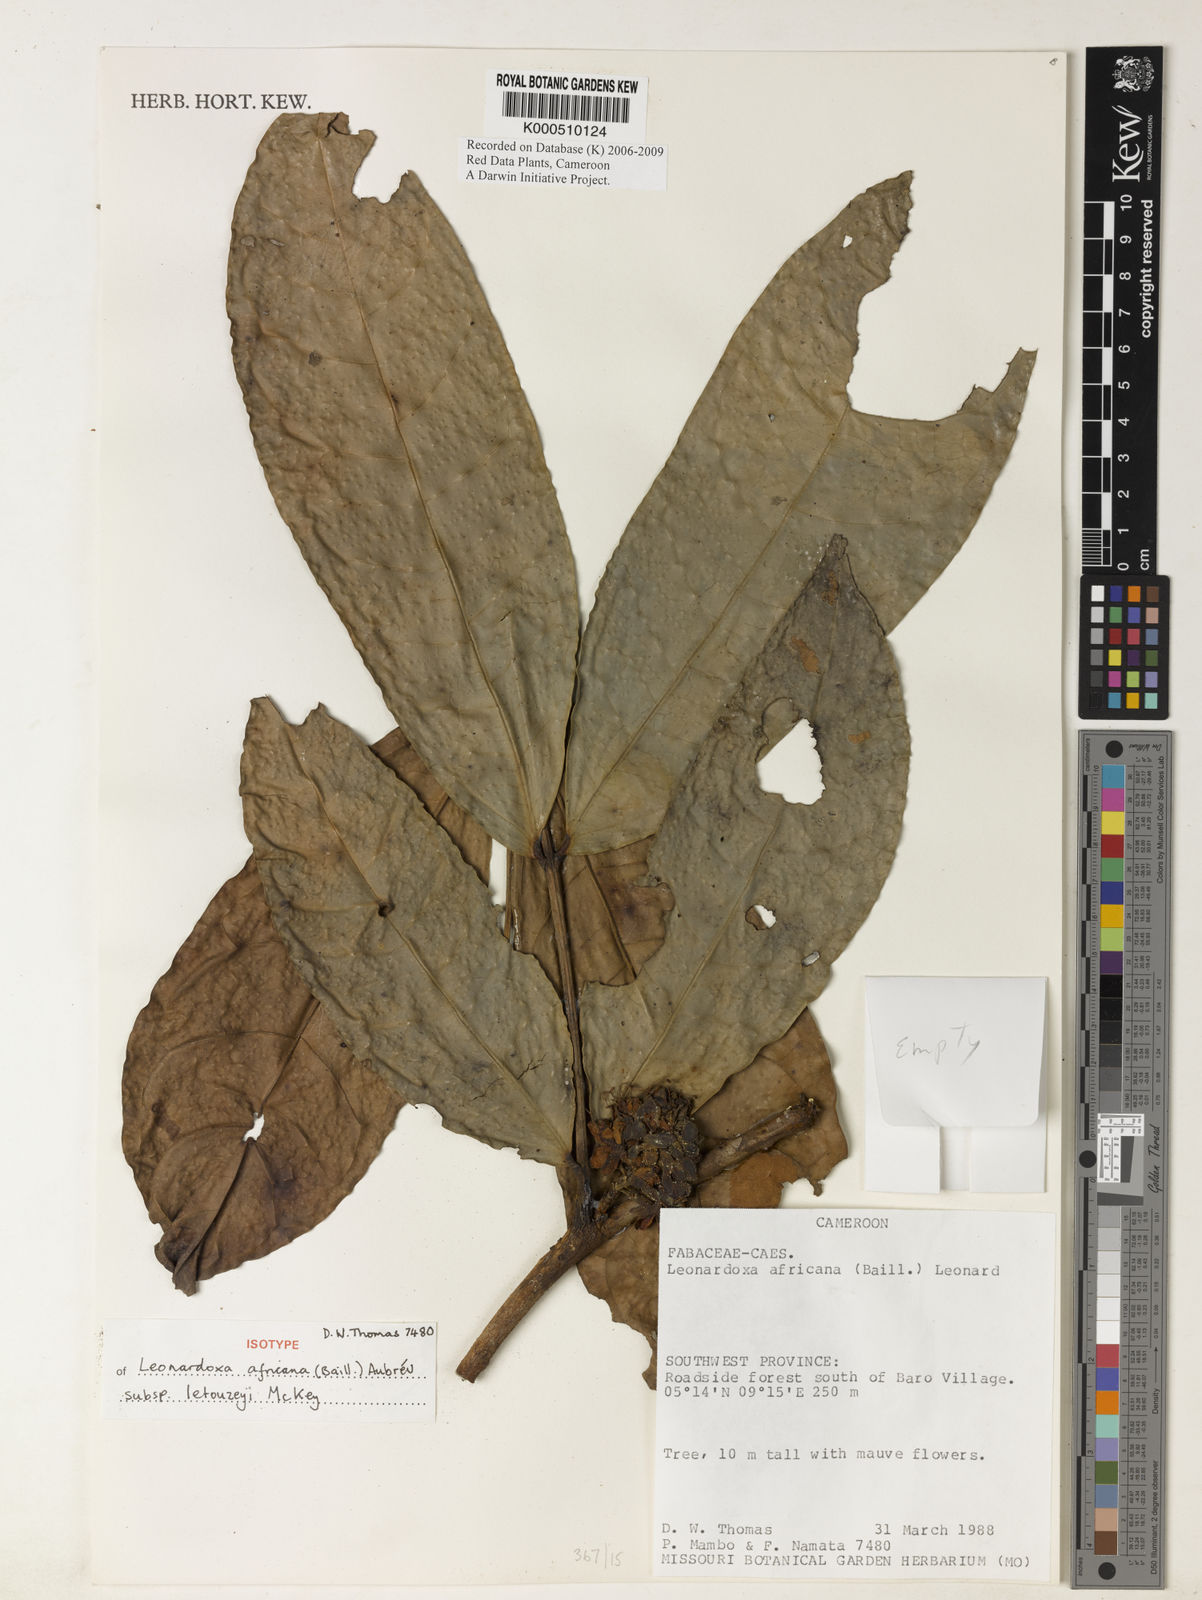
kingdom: Plantae
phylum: Tracheophyta
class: Magnoliopsida
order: Fabales
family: Fabaceae
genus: Leonardoxa
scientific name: Leonardoxa
